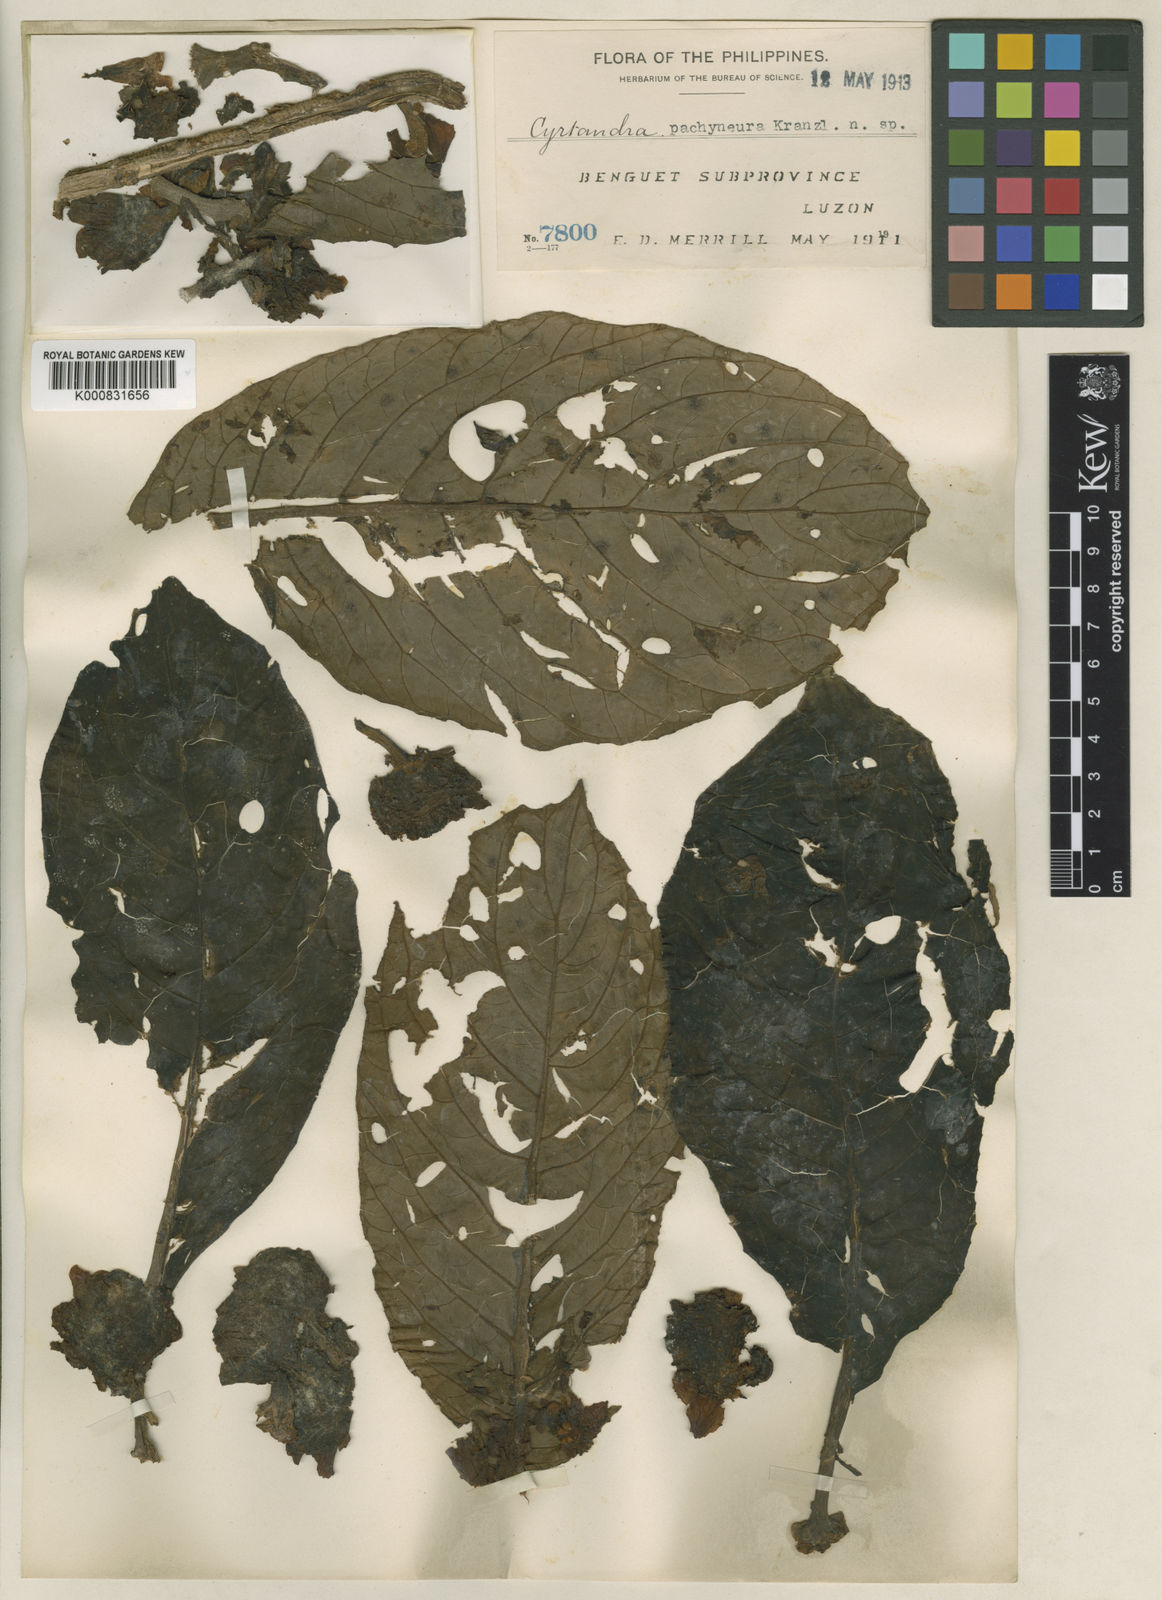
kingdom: Plantae
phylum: Tracheophyta
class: Magnoliopsida
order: Lamiales
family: Gesneriaceae
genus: Cyrtandra
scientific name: Cyrtandra pachyneura
